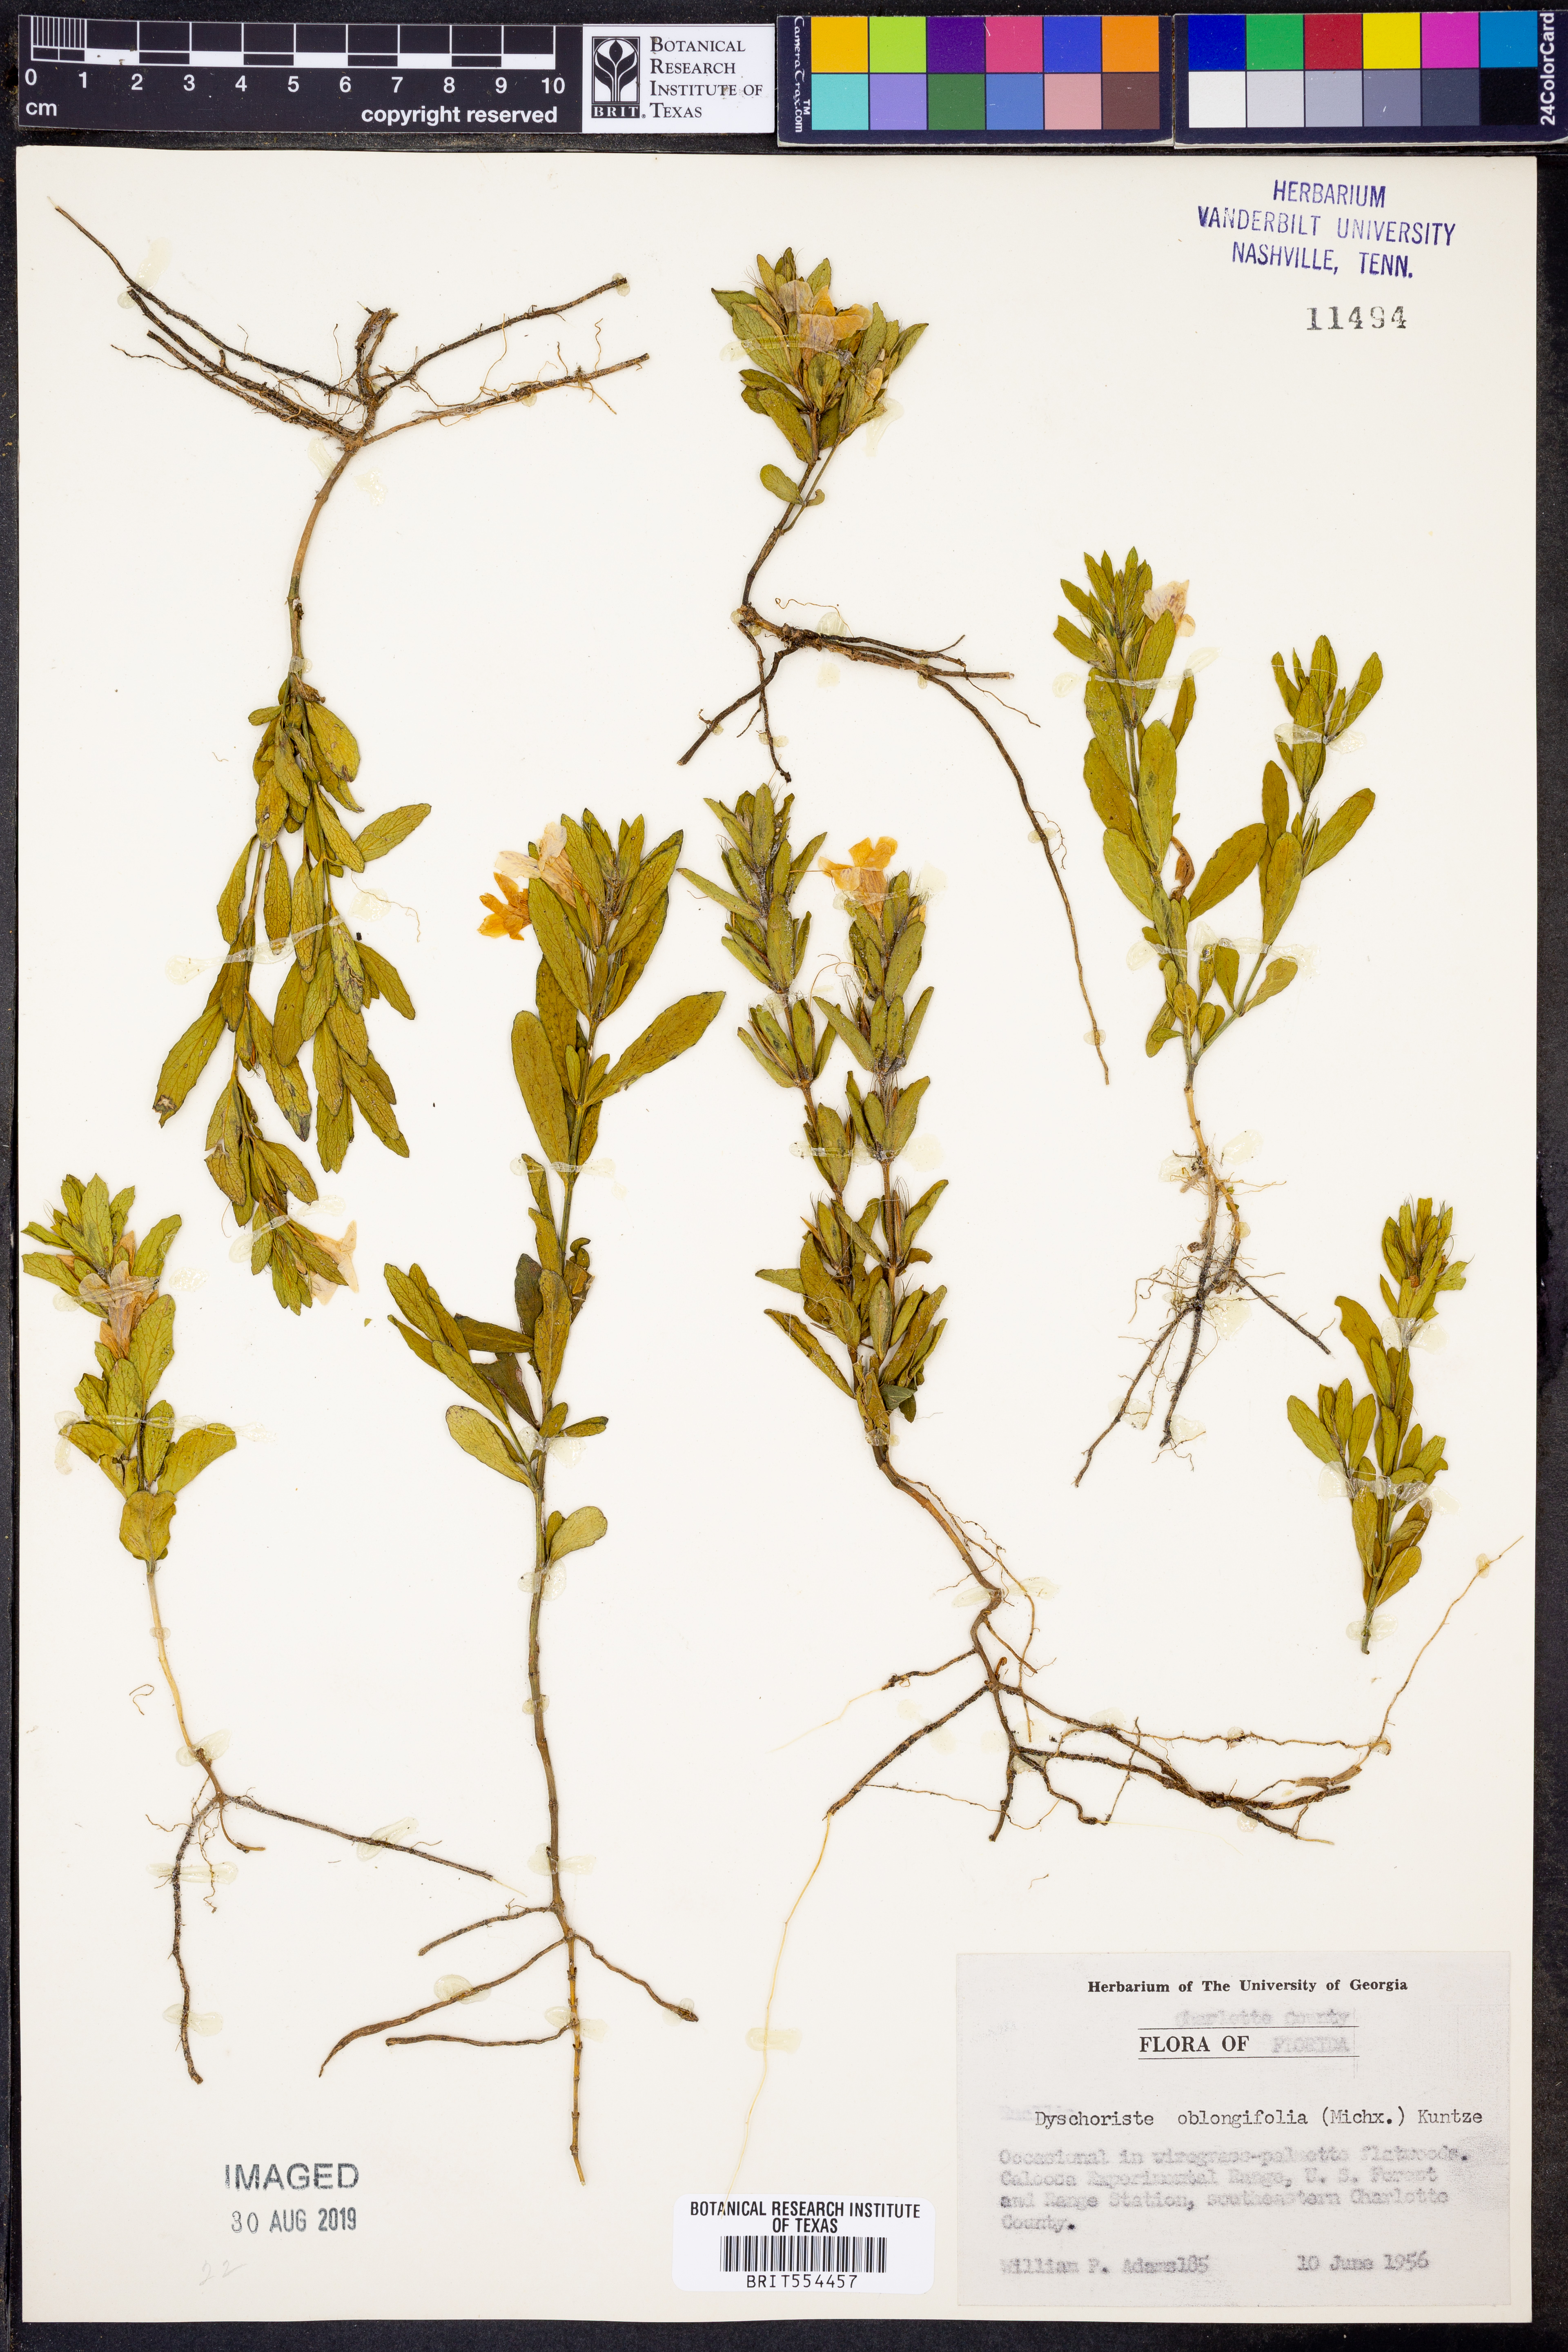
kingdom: Plantae
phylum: Tracheophyta
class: Magnoliopsida
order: Lamiales
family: Acanthaceae
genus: Dyschoriste
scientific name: Dyschoriste oblongifolia
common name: Blue twinflower
